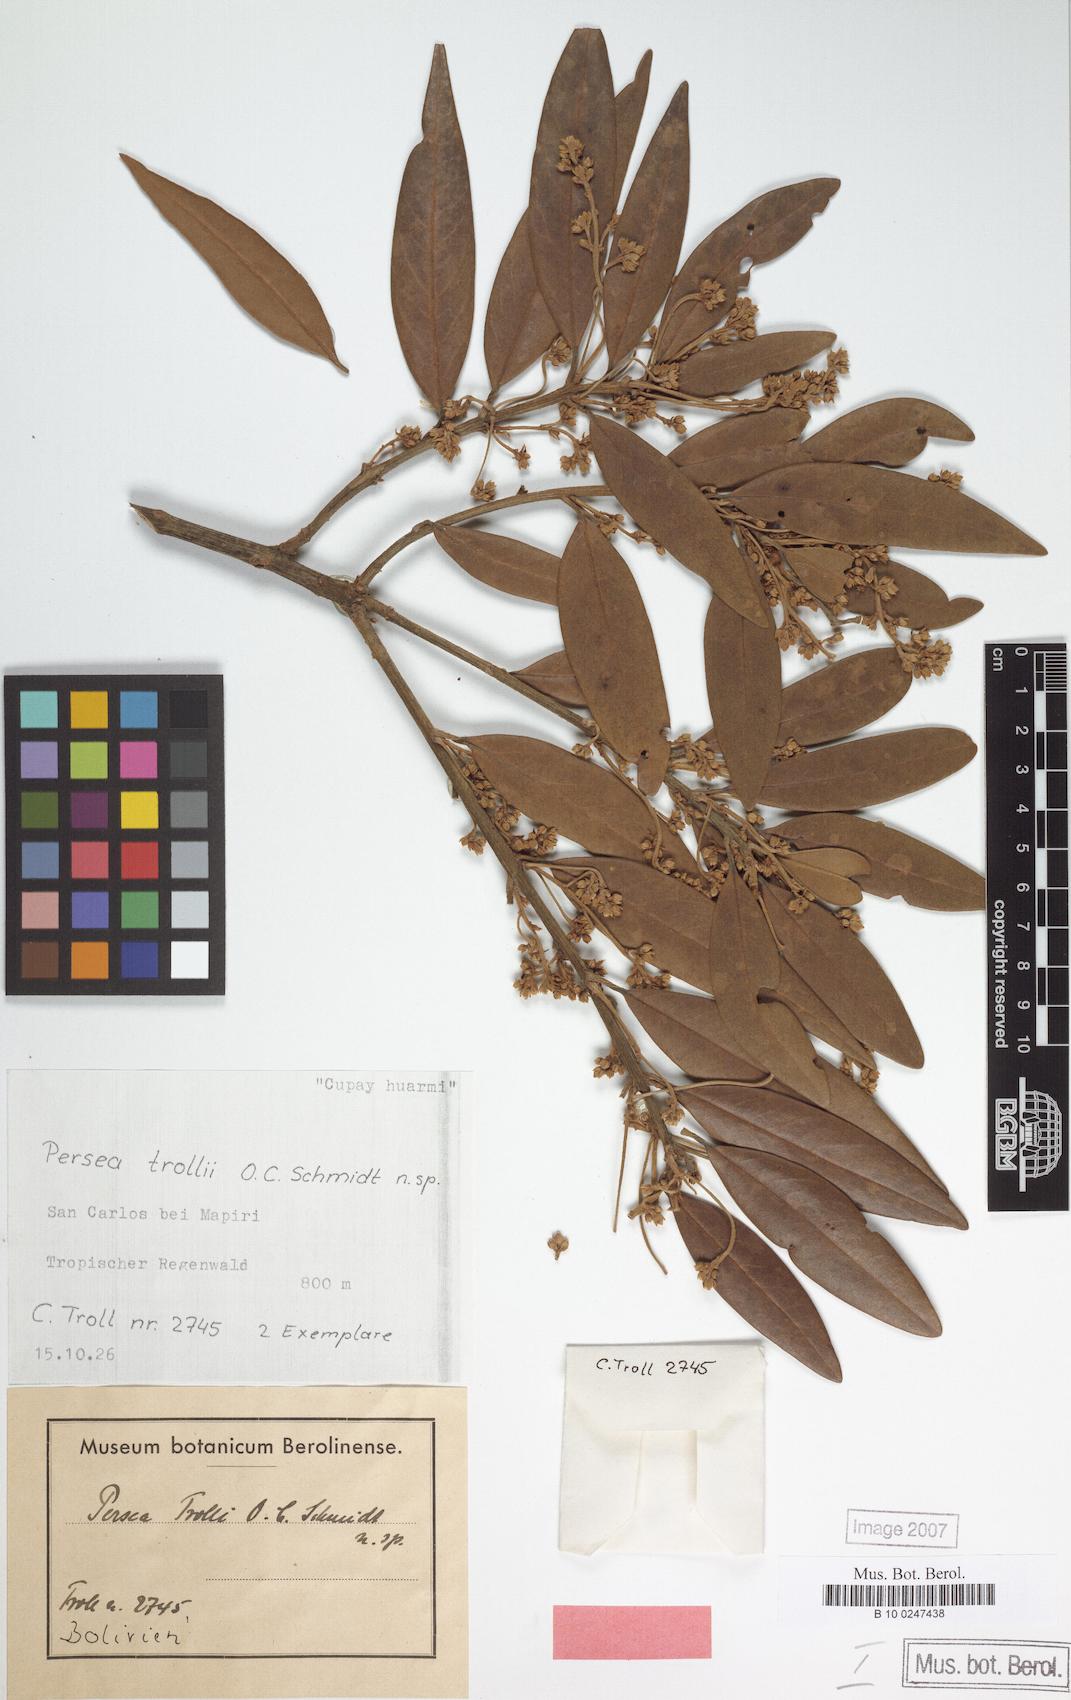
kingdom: Plantae
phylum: Tracheophyta
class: Magnoliopsida
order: Laurales
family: Lauraceae
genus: Persea
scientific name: Persea trollii
